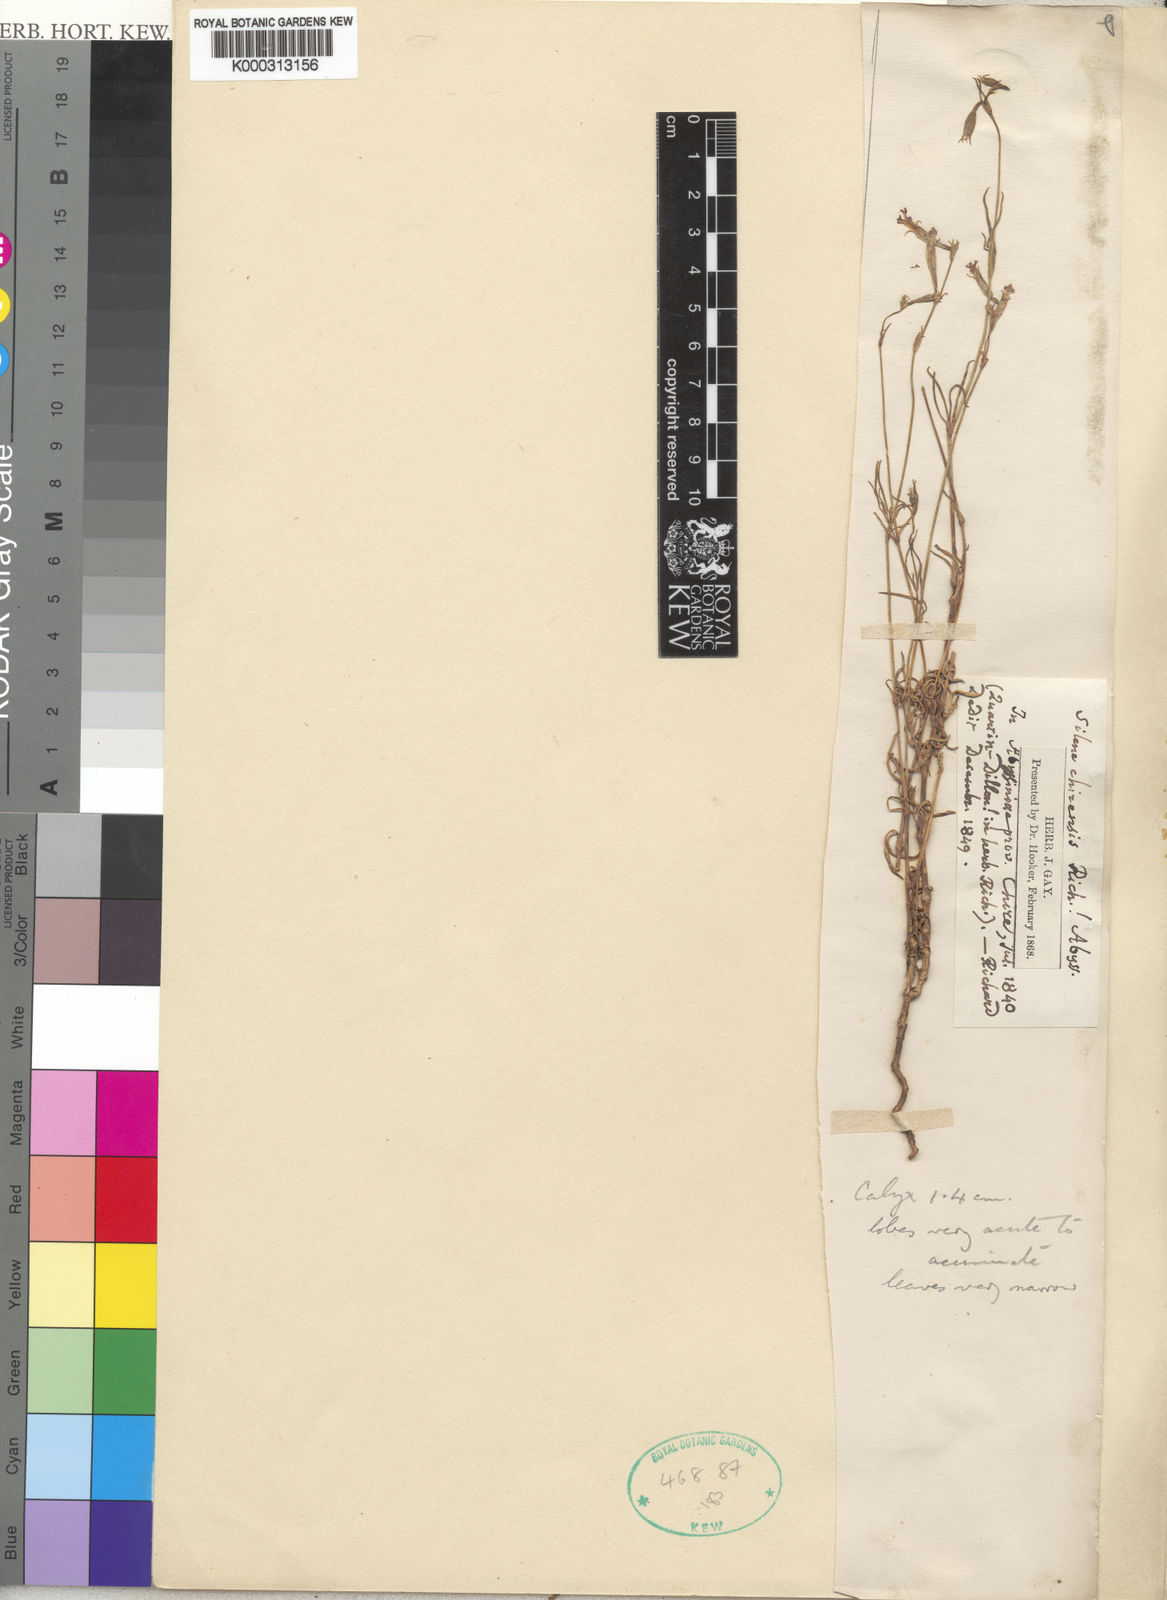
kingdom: Plantae
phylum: Tracheophyta
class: Magnoliopsida
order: Caryophyllales
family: Caryophyllaceae
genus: Silene
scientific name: Silene chirensis
